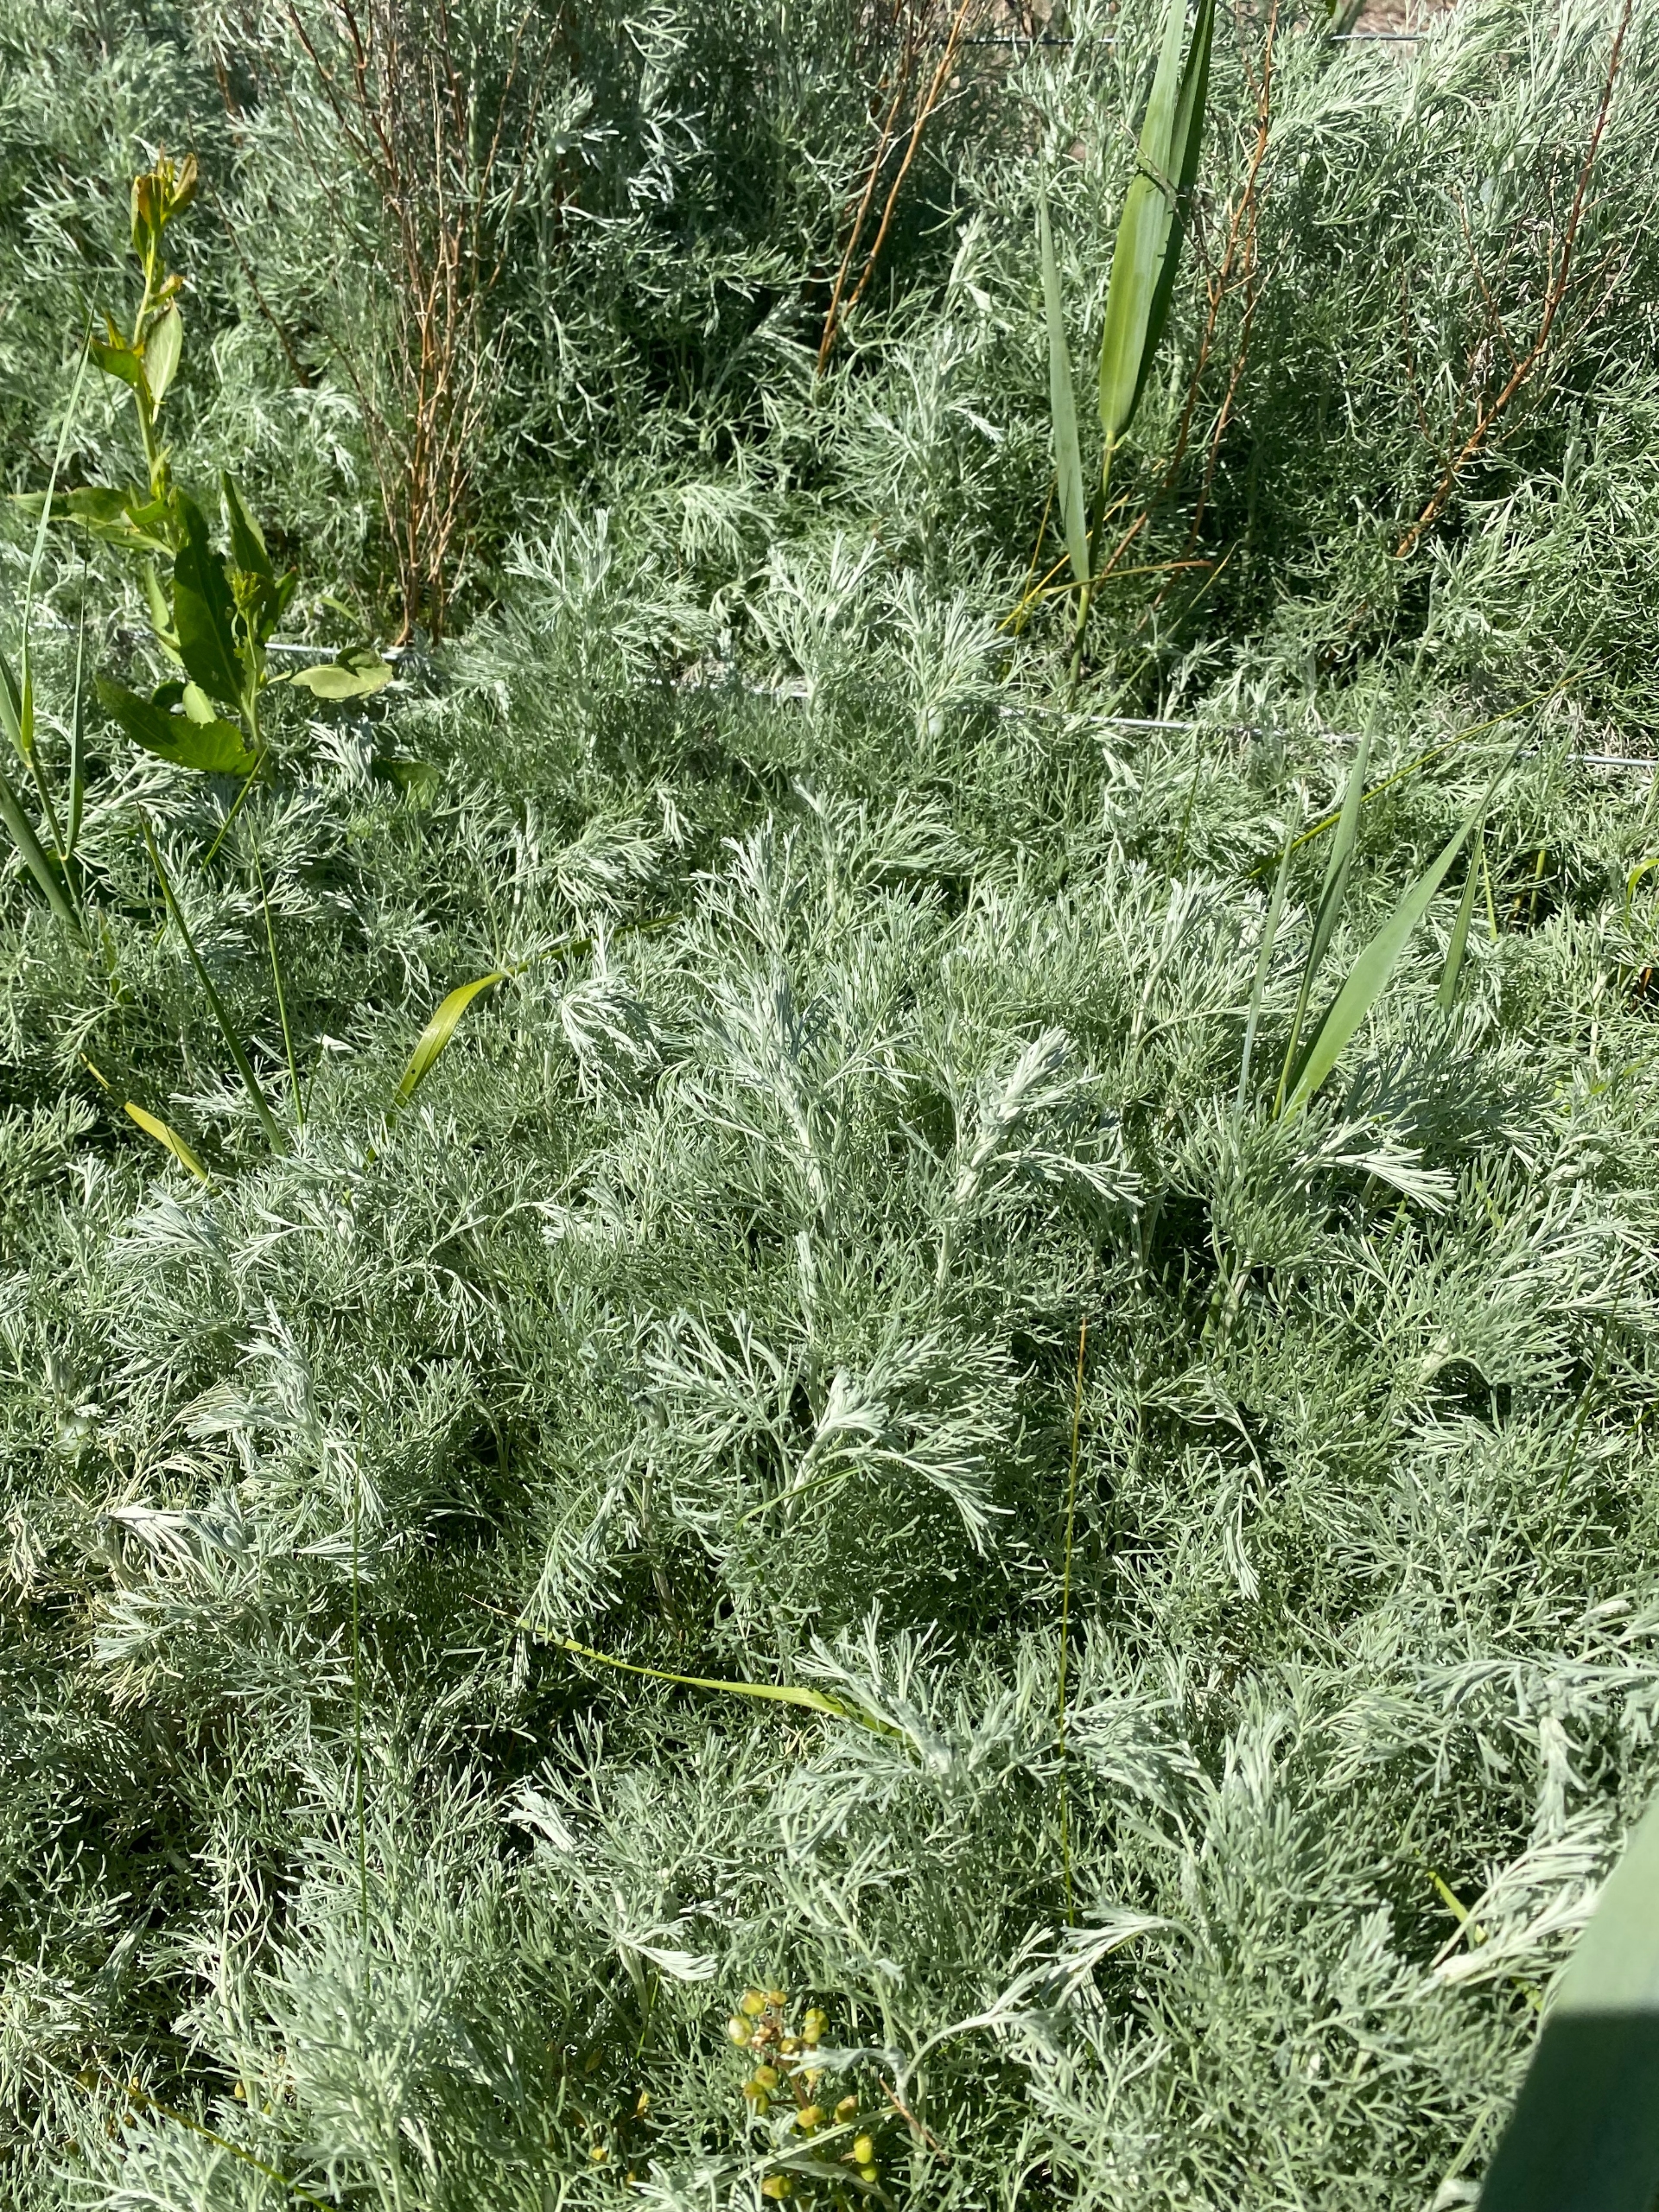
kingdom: Plantae
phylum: Tracheophyta
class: Magnoliopsida
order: Asterales
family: Asteraceae
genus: Artemisia
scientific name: Artemisia maritima
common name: Strandmalurt
